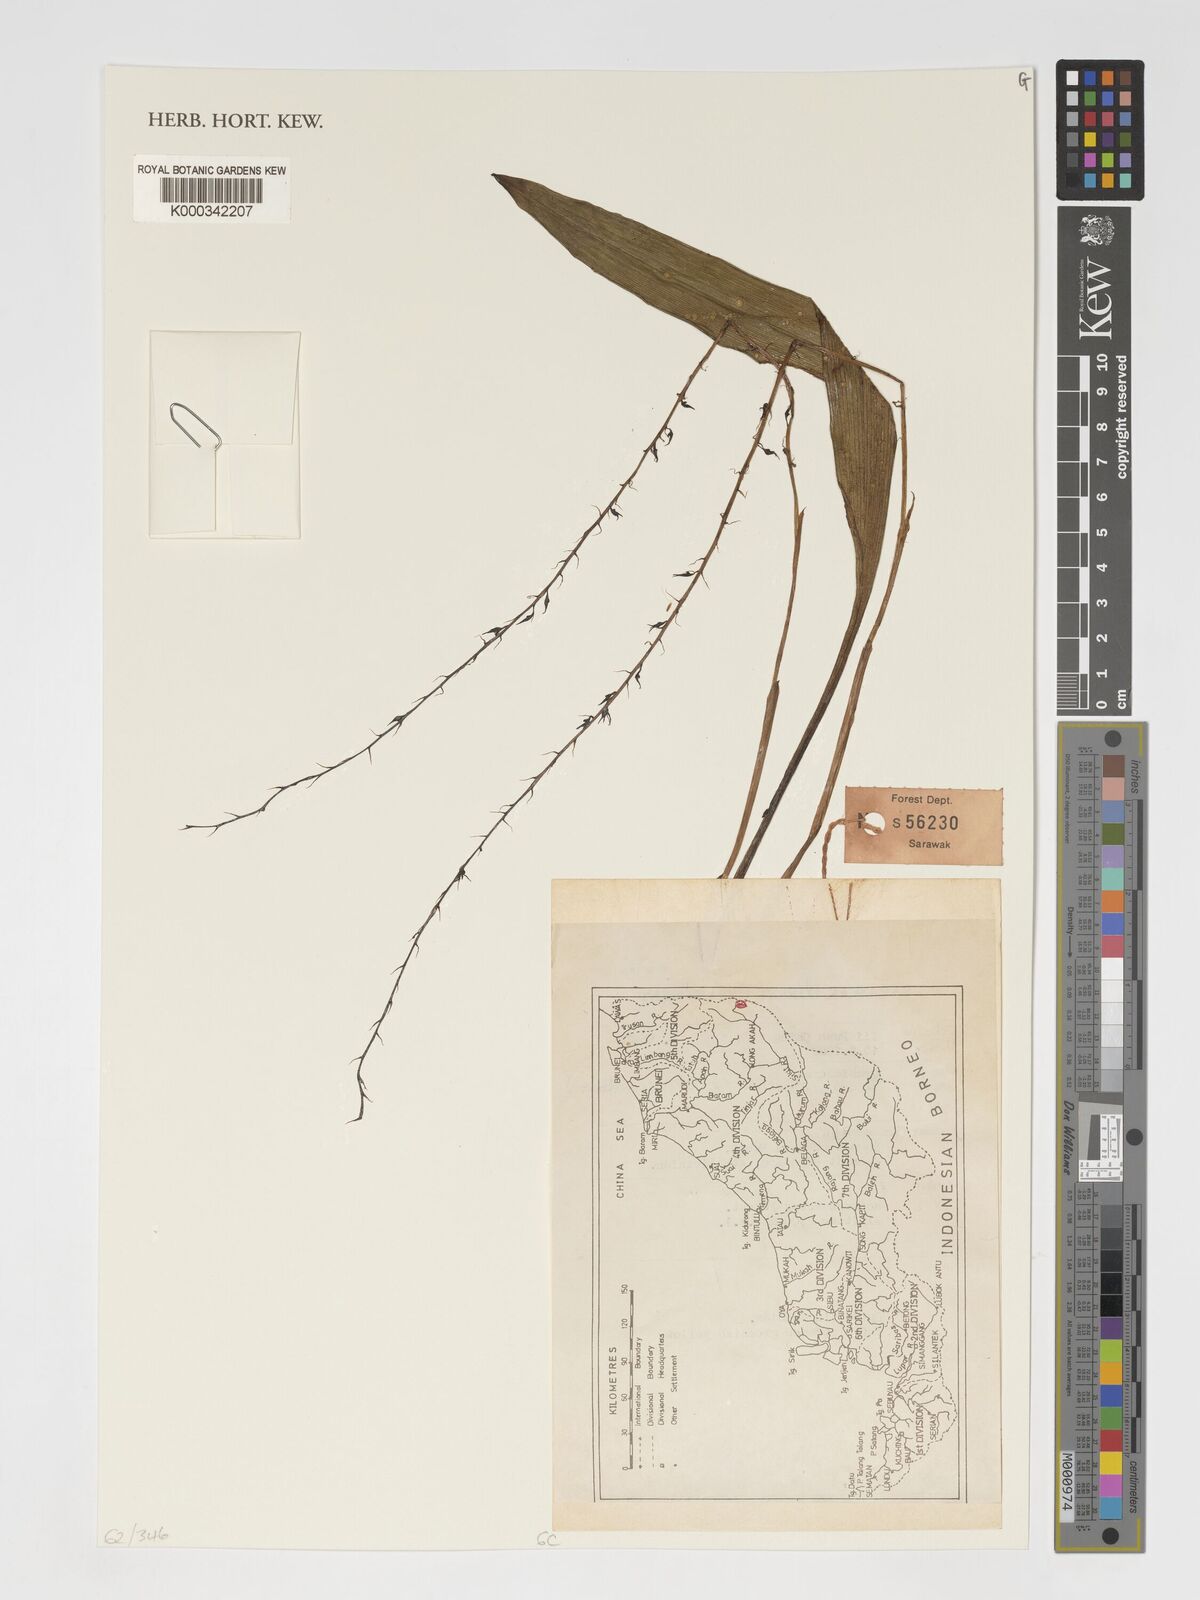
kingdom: Plantae
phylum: Tracheophyta
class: Liliopsida
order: Asparagales
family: Orchidaceae
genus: Bulbophyllum
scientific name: Bulbophyllum
